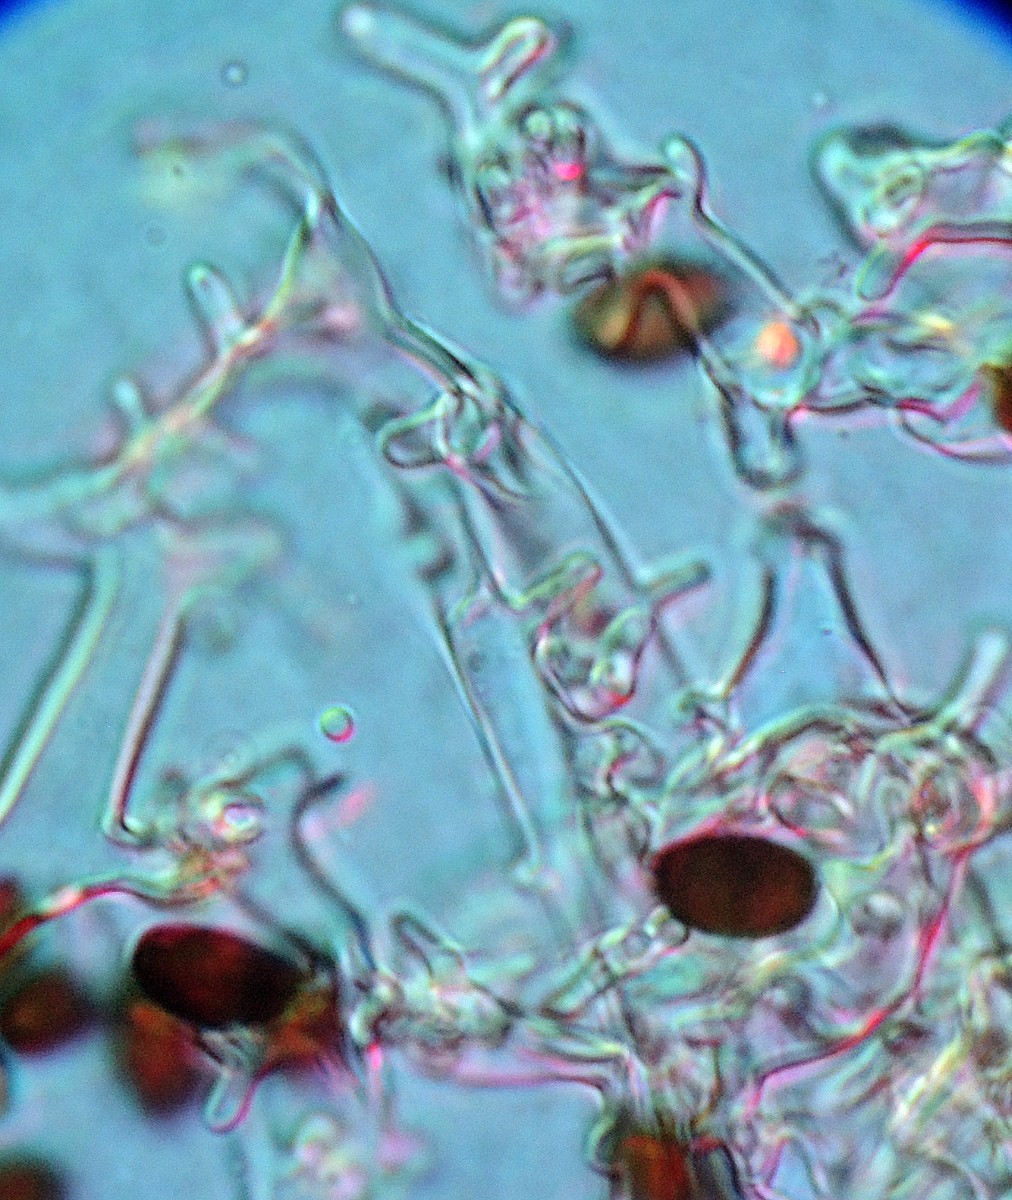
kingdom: Fungi
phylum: Basidiomycota
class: Agaricomycetes
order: Agaricales
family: Psathyrellaceae
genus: Coprinopsis
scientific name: Coprinopsis pseudofriesii
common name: gulfnugget blækhat
